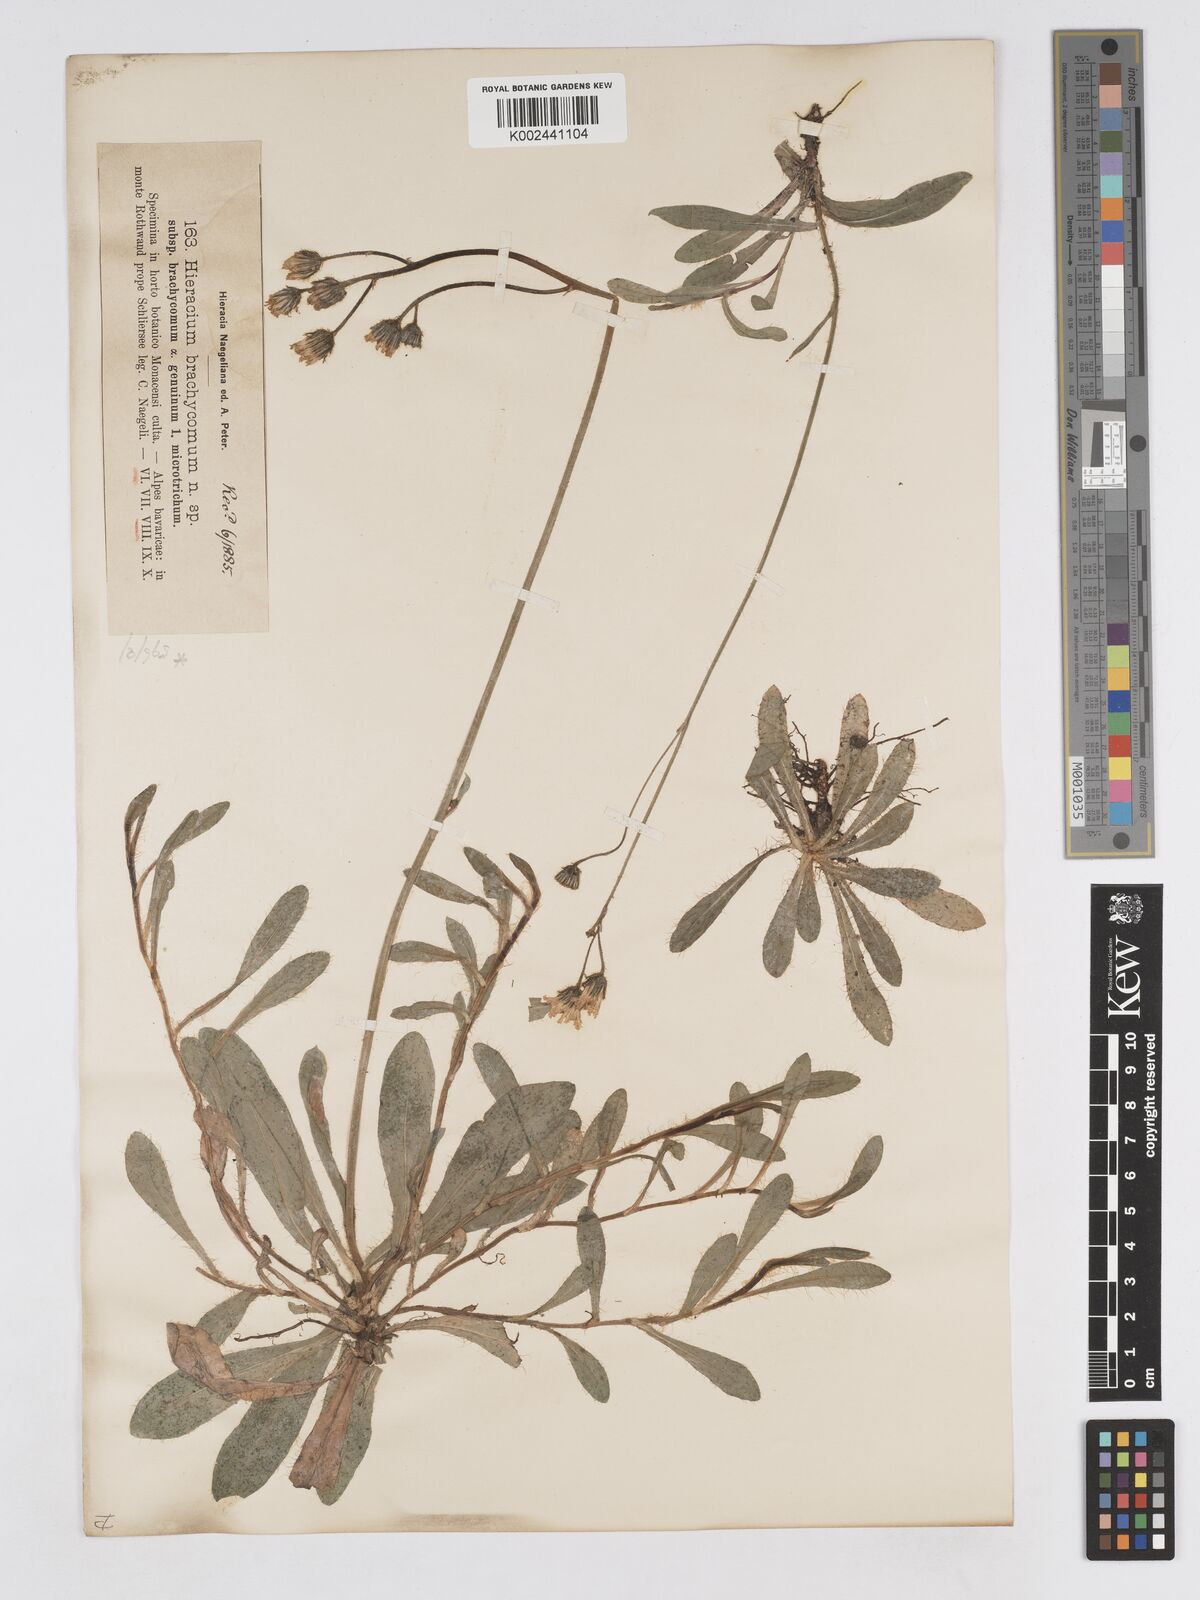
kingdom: Plantae
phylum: Tracheophyta
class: Magnoliopsida
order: Asterales
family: Asteraceae
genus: Pilosella
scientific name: Pilosella brachycoma
